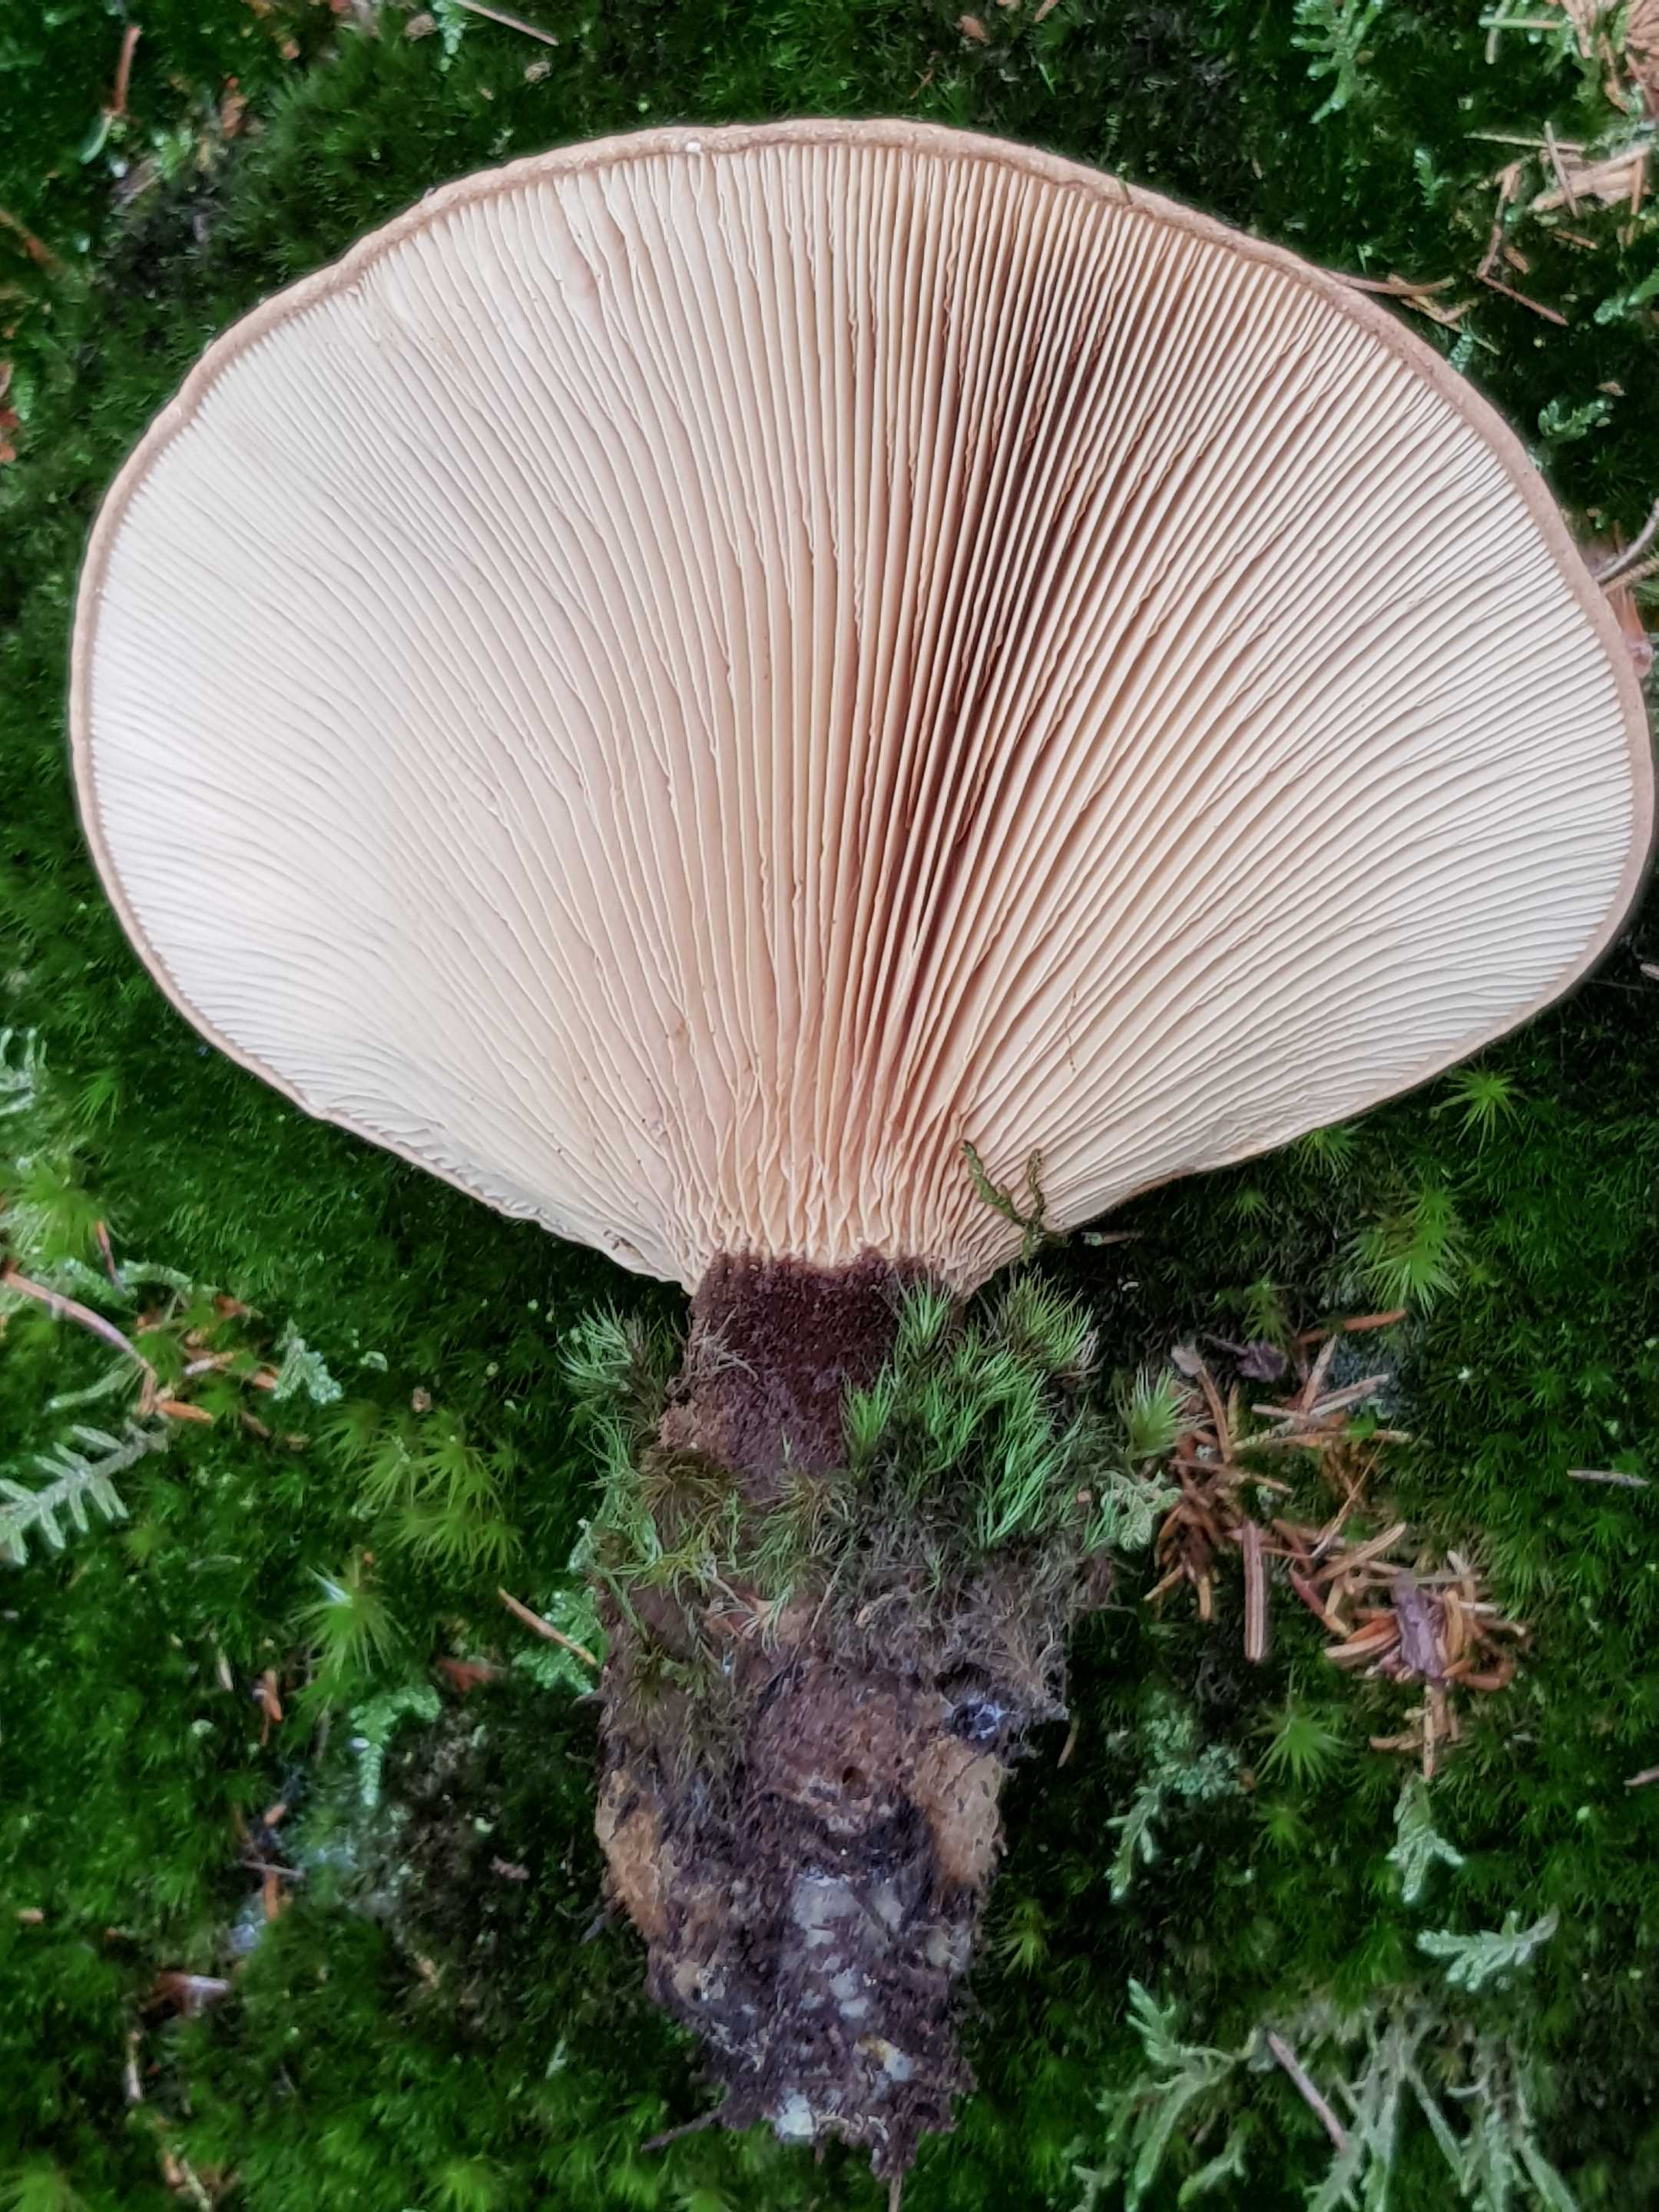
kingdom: Fungi
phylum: Basidiomycota
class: Agaricomycetes
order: Boletales
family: Tapinellaceae
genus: Tapinella
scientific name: Tapinella atrotomentosa
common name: sortfiltet viftesvamp
